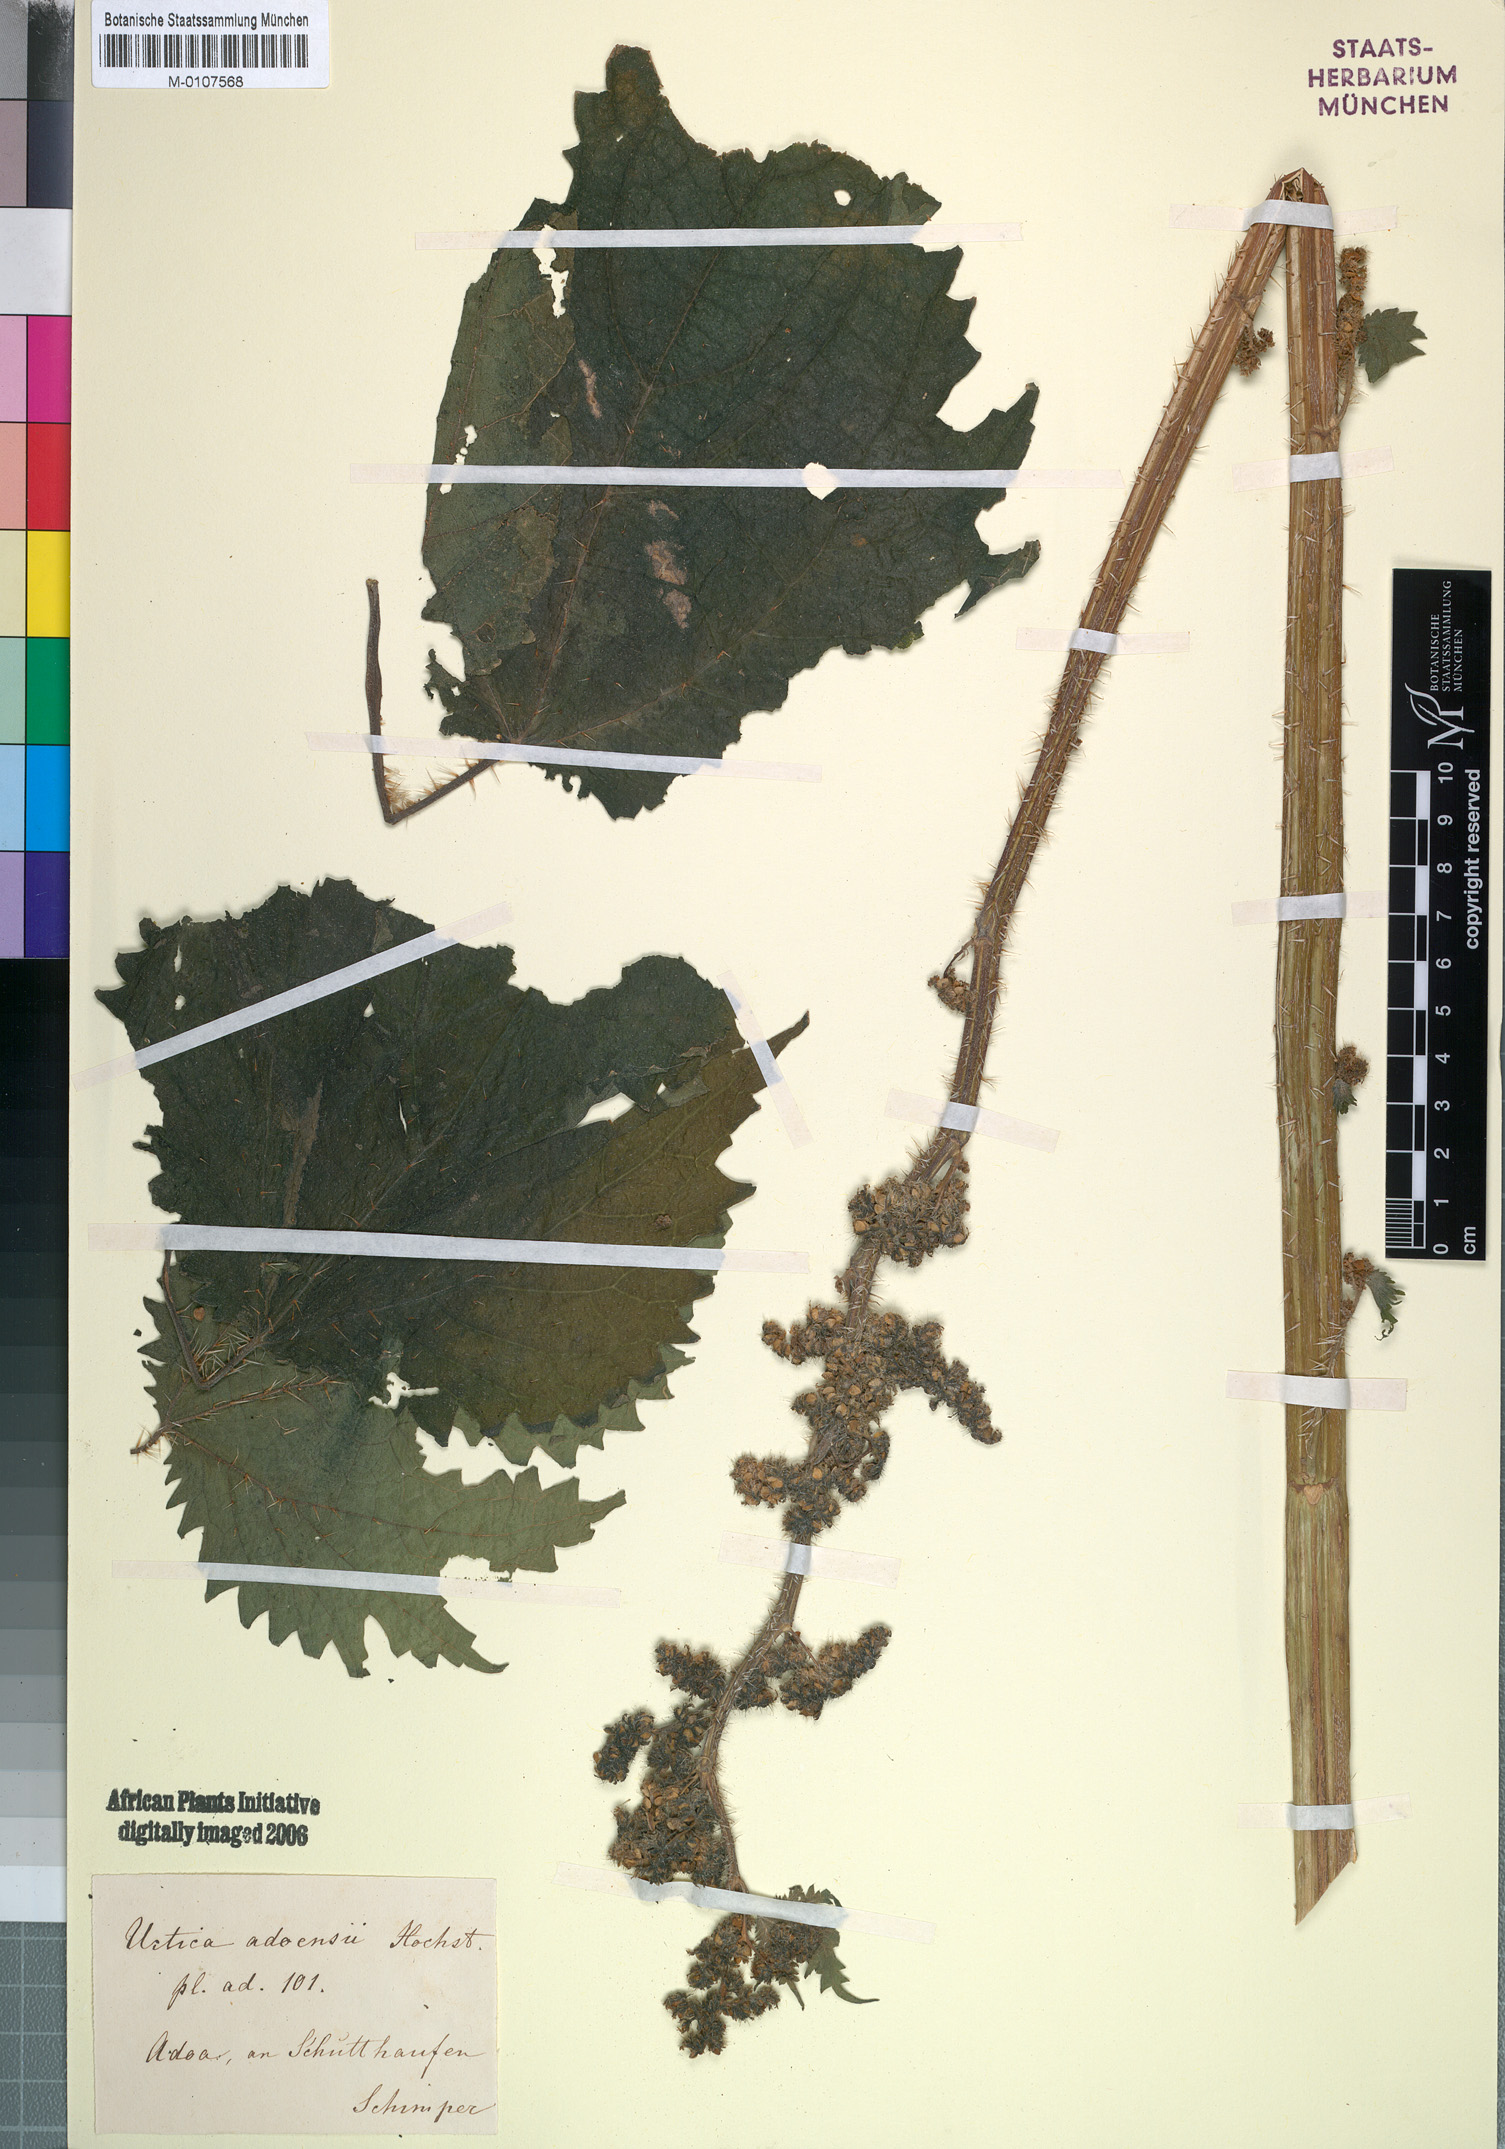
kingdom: Plantae
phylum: Tracheophyta
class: Magnoliopsida
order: Rosales
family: Urticaceae
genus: Girardinia
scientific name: Girardinia diversifolia
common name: Himalayan-nettle
